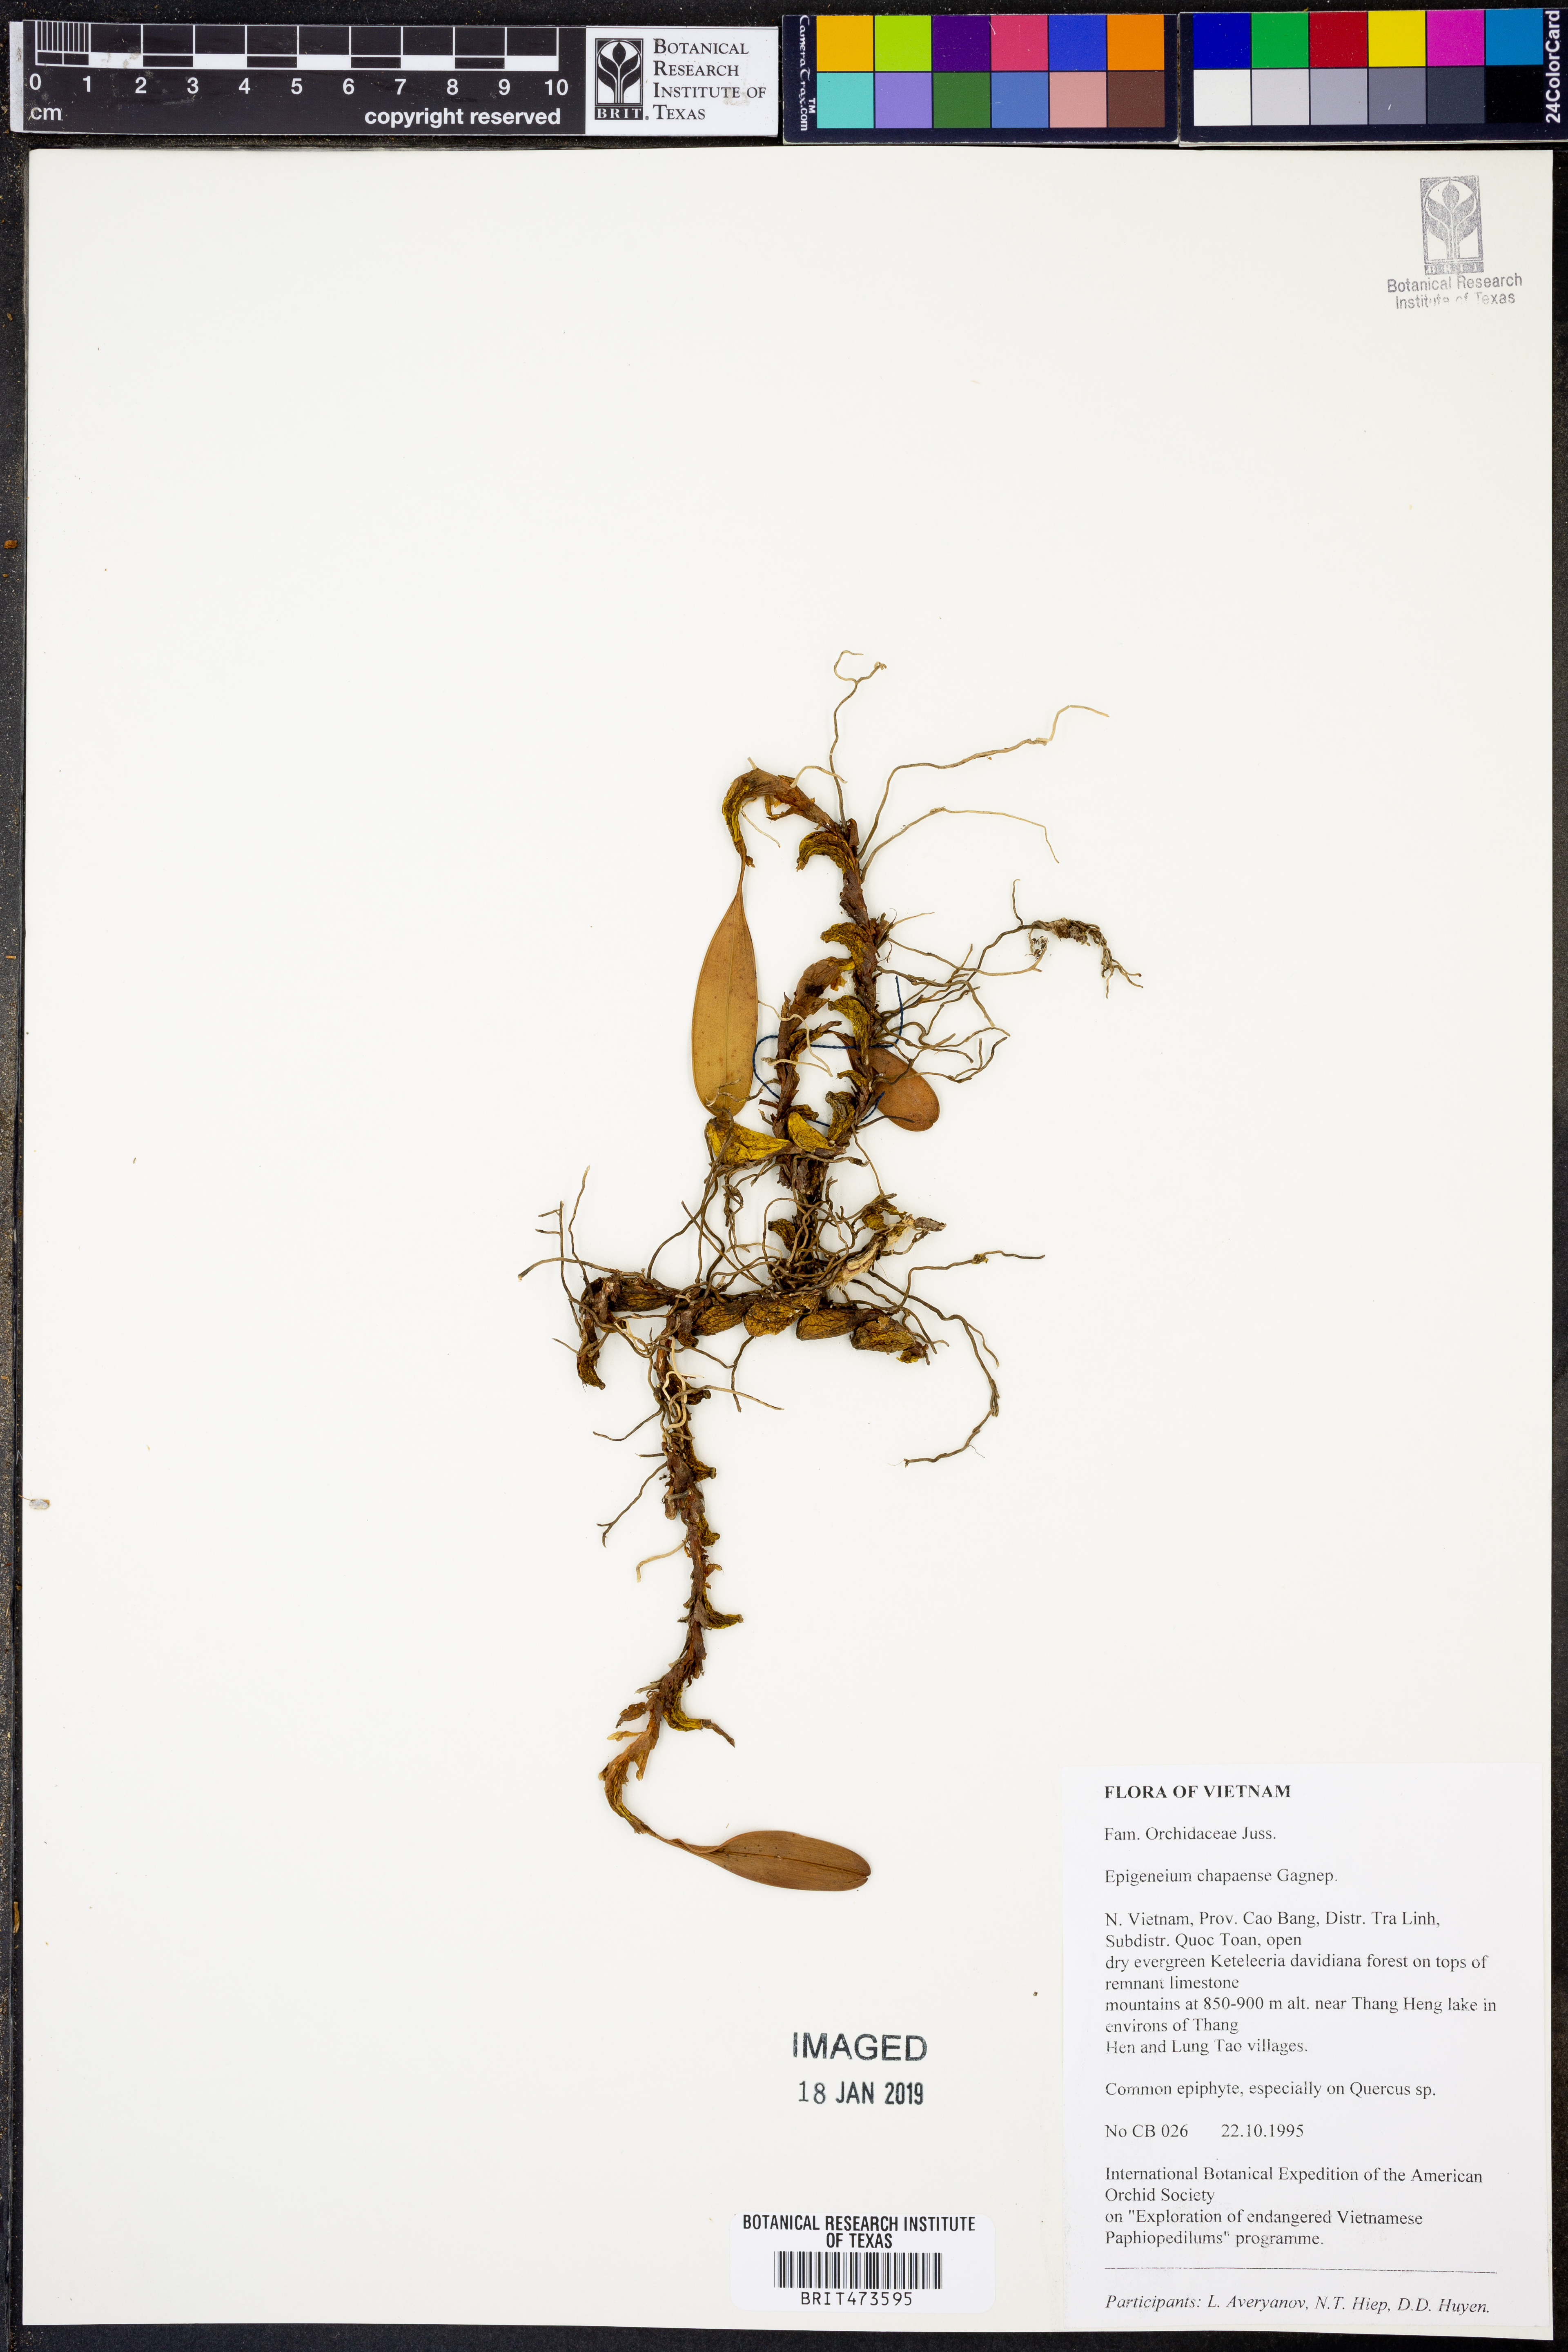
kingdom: Plantae
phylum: Tracheophyta
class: Liliopsida
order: Asparagales
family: Orchidaceae
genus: Dendrobium
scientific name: Dendrobium brunneum
